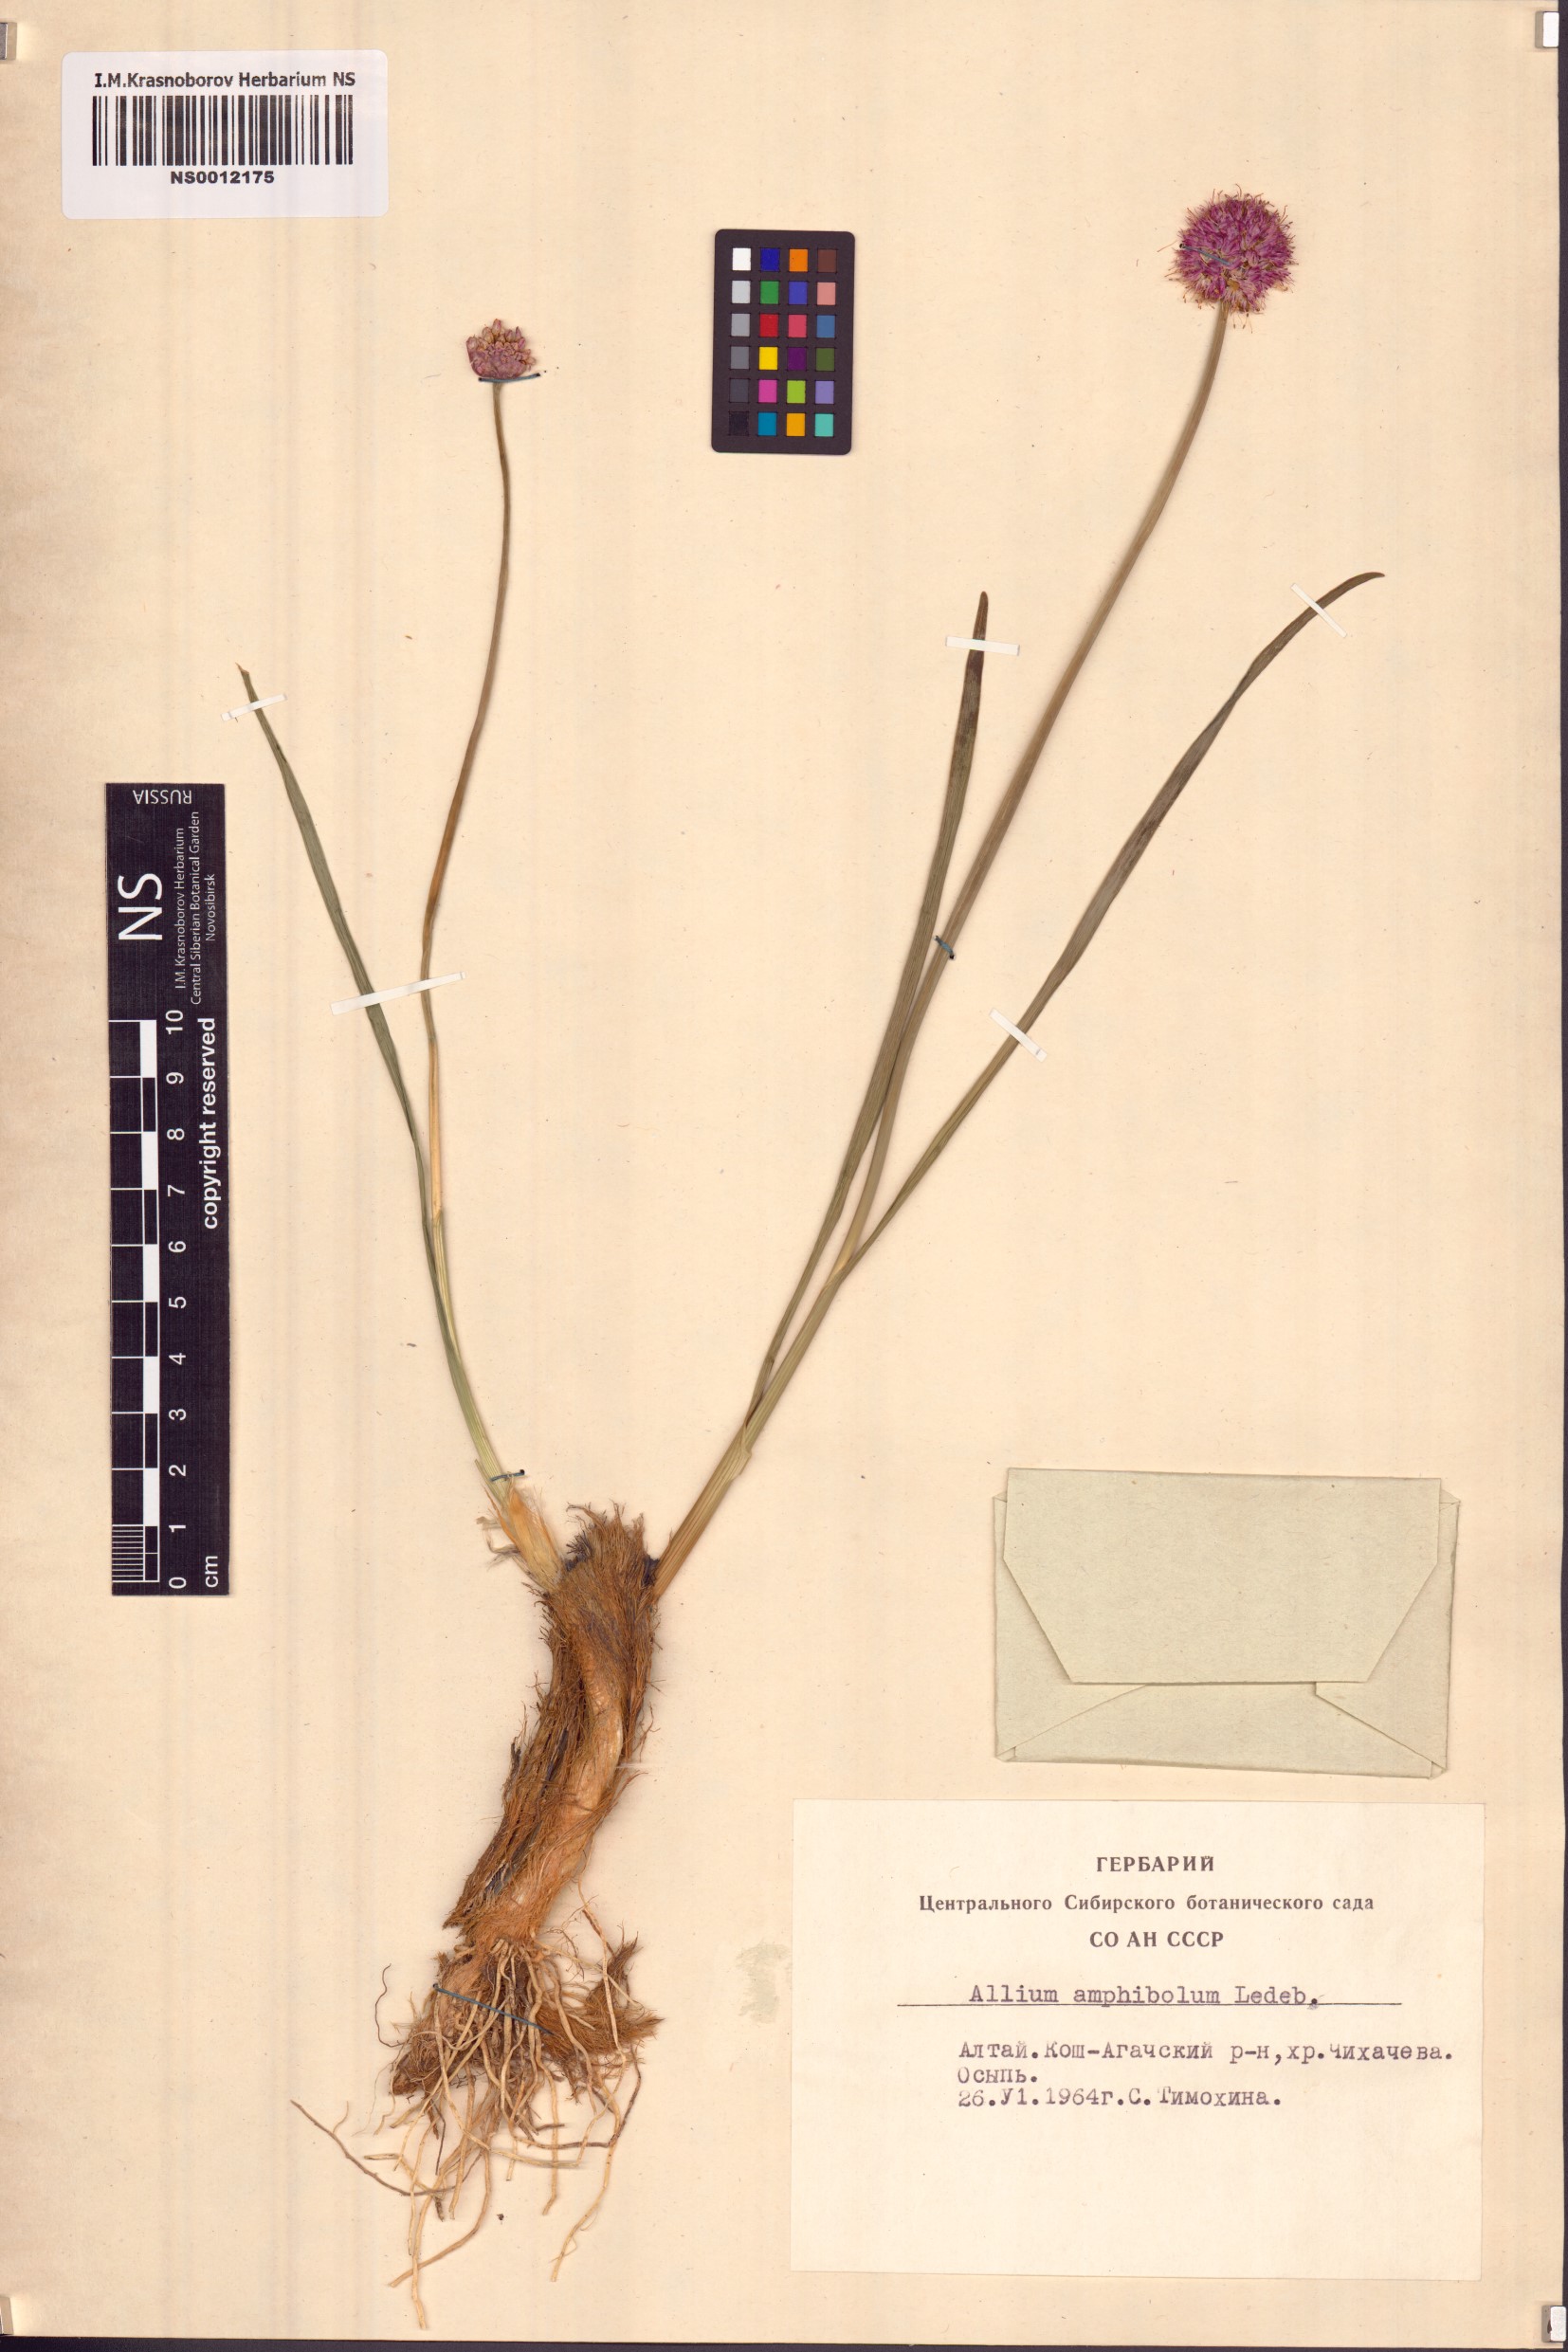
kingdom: Plantae
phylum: Tracheophyta
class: Liliopsida
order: Asparagales
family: Amaryllidaceae
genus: Allium
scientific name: Allium amphibolum
